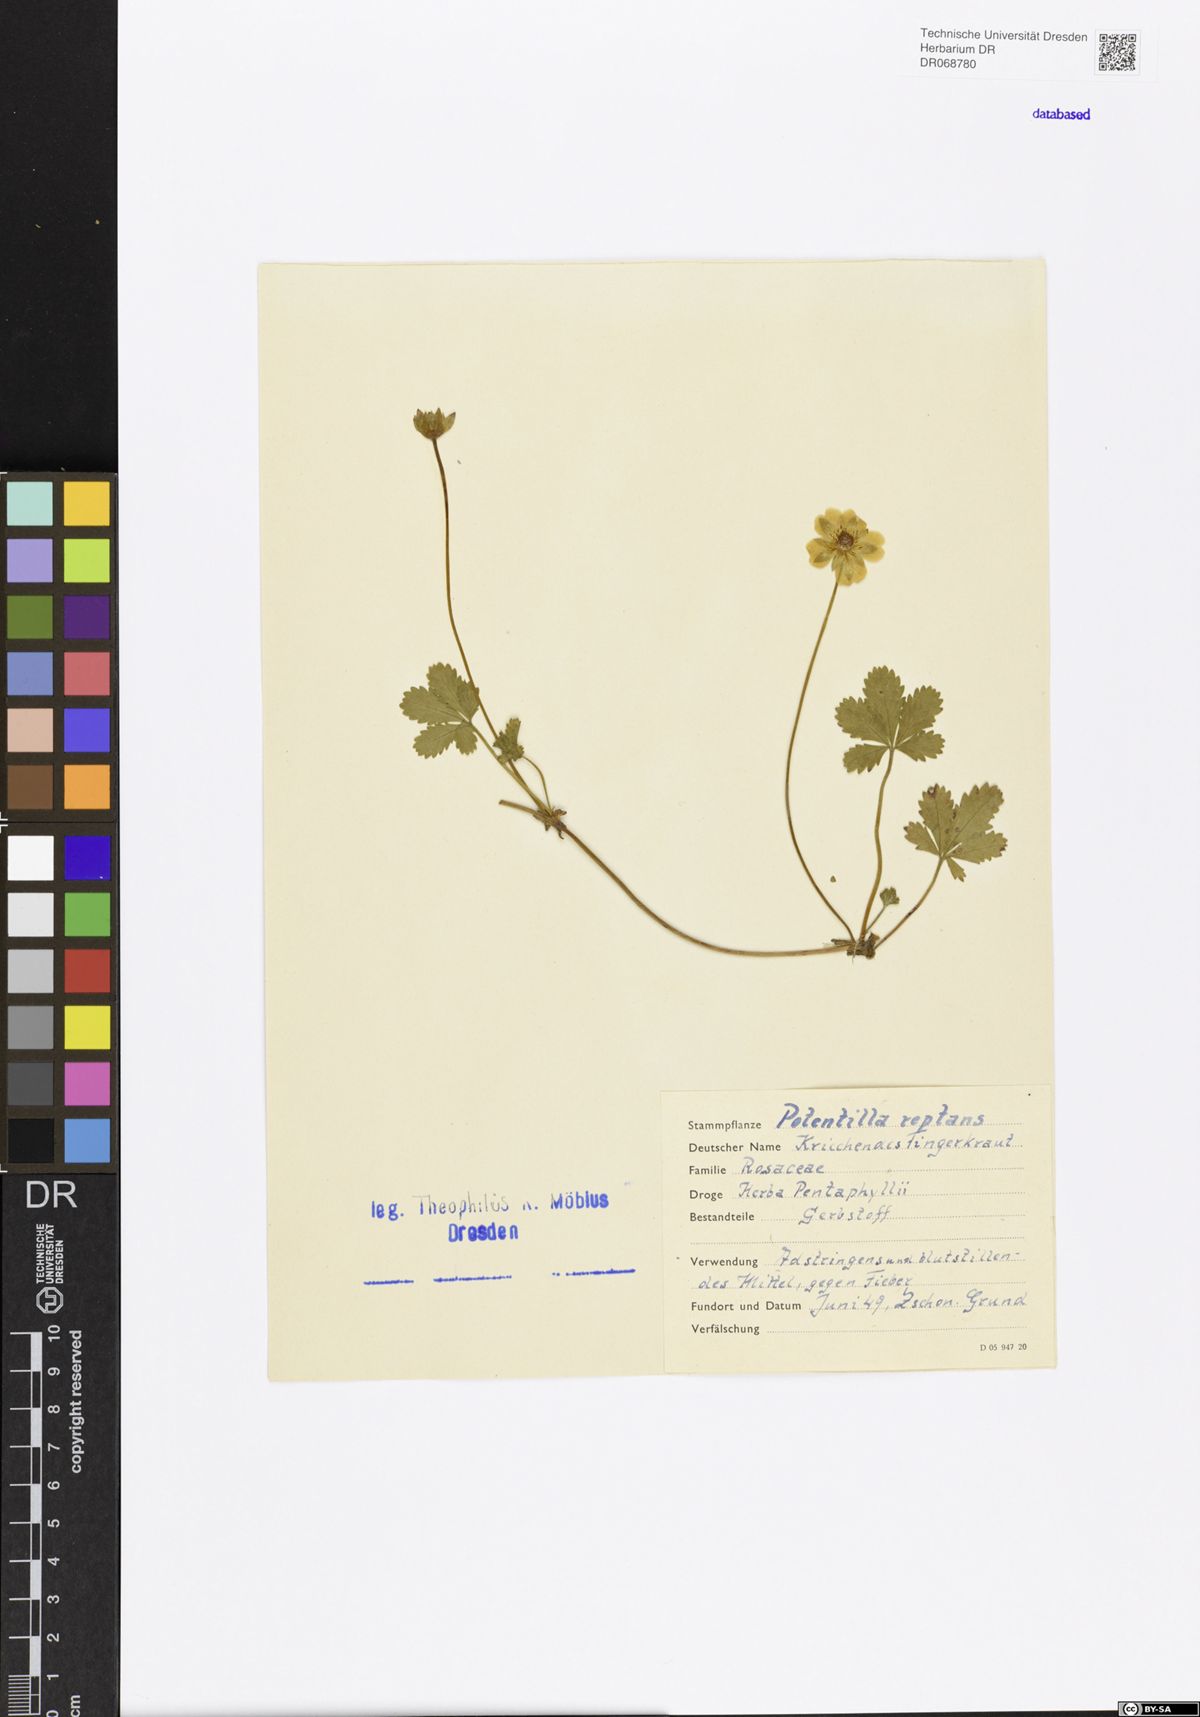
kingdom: Plantae
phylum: Tracheophyta
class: Magnoliopsida
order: Rosales
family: Rosaceae
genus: Potentilla
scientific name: Potentilla reptans
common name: Creeping cinquefoil
